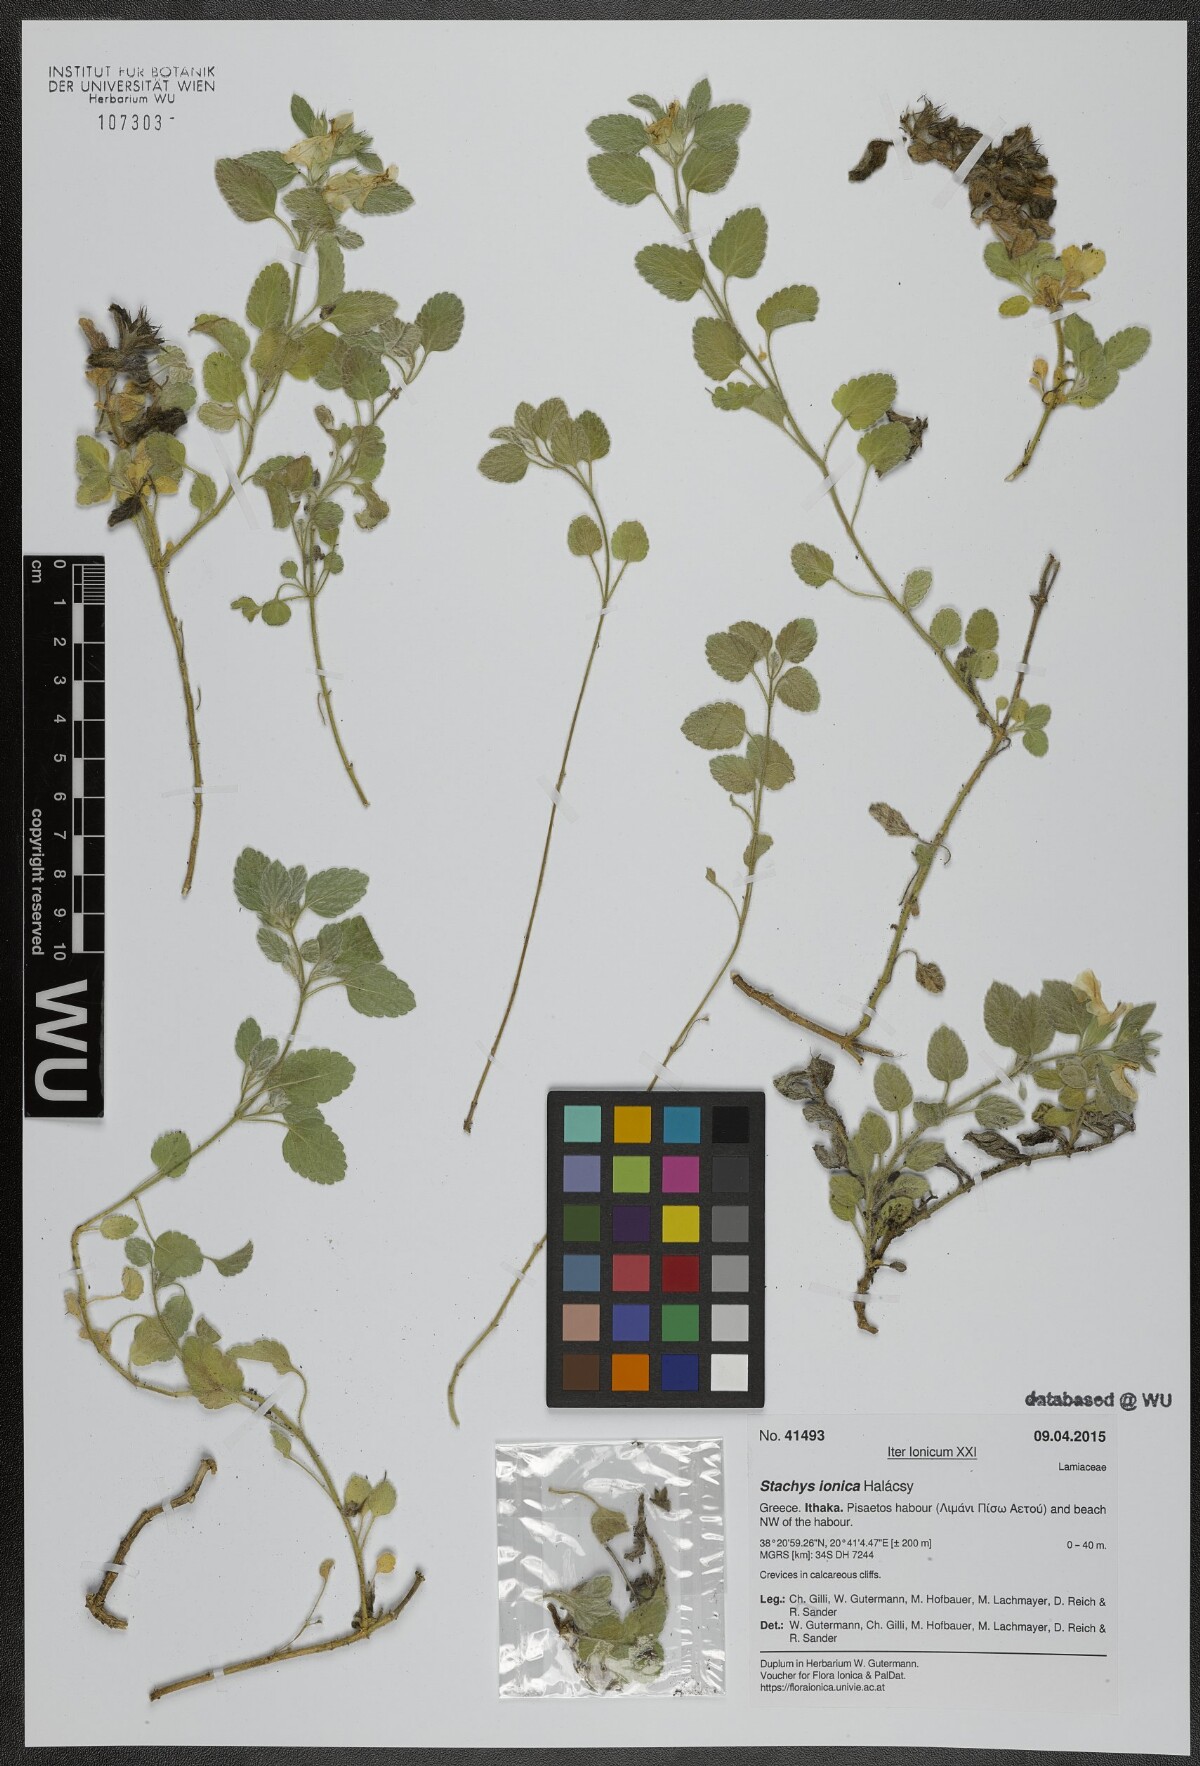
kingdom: Plantae
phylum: Tracheophyta
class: Magnoliopsida
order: Lamiales
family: Lamiaceae
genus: Stachys
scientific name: Stachys ionica
